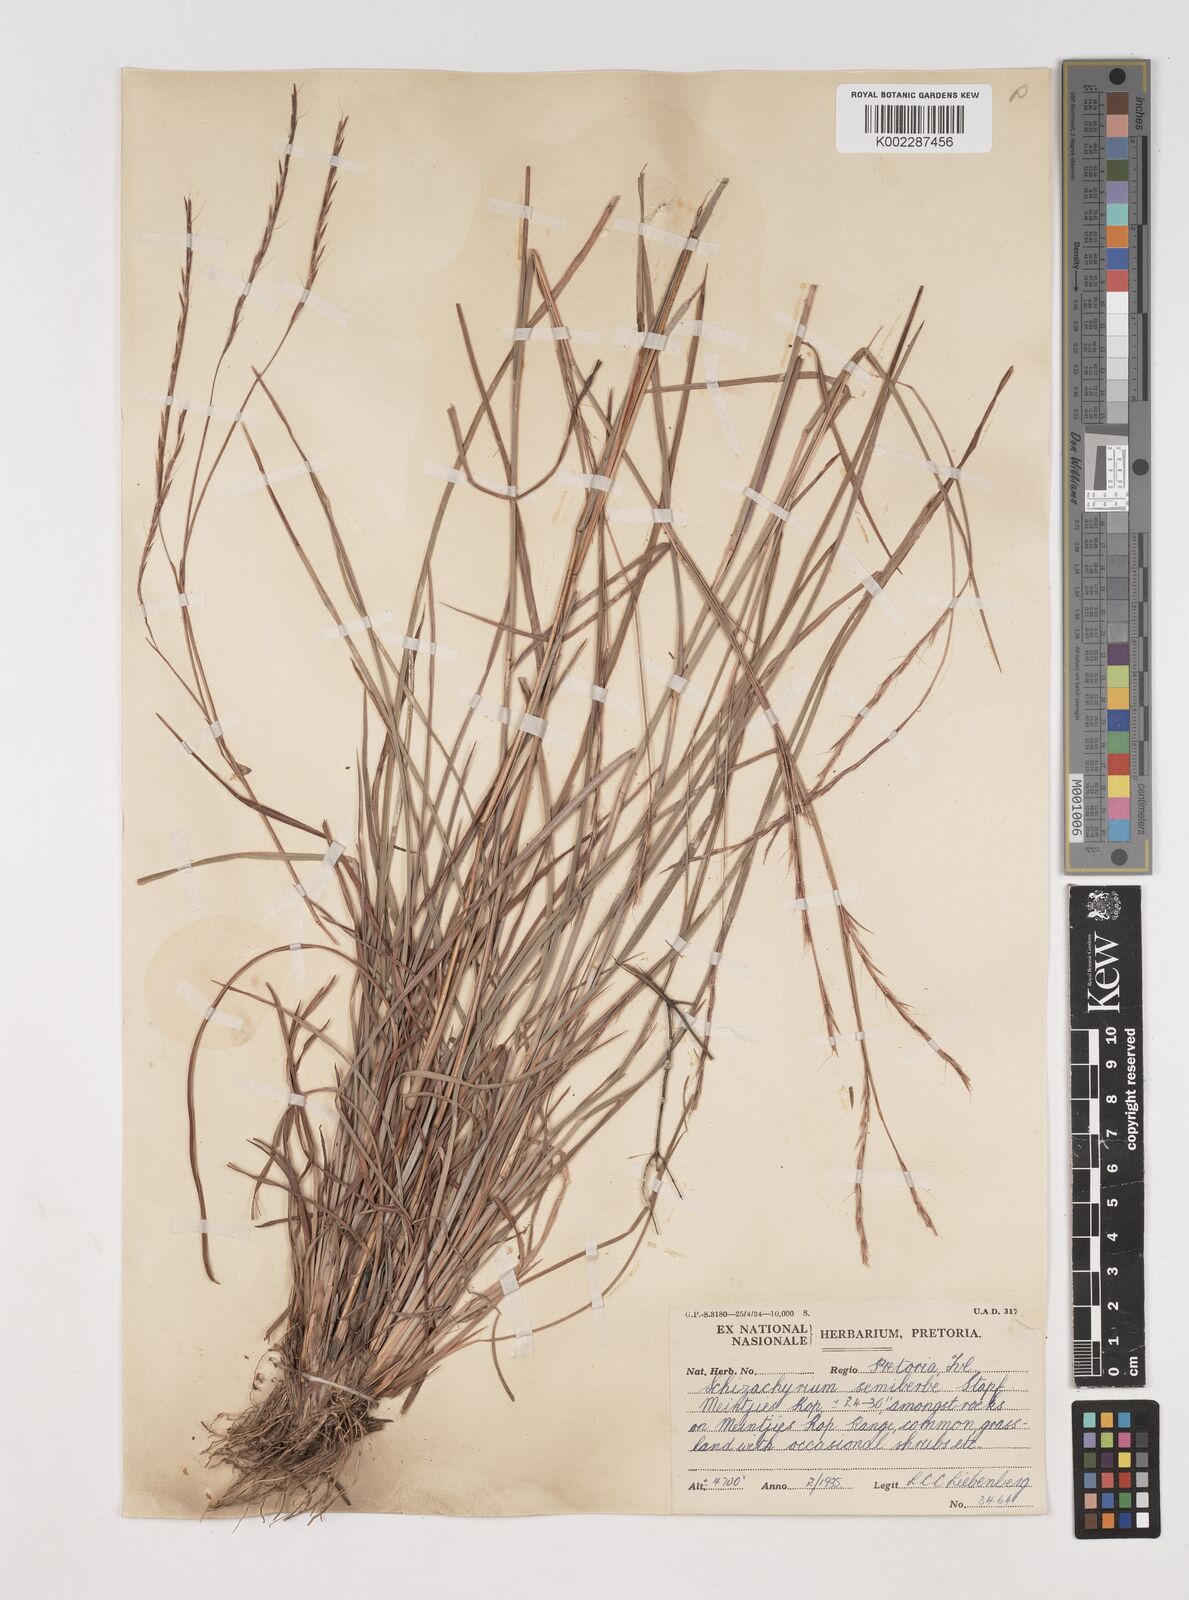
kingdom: Plantae
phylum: Tracheophyta
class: Liliopsida
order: Poales
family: Poaceae
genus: Schizachyrium
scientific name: Schizachyrium sanguineum
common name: Crimson bluestem
